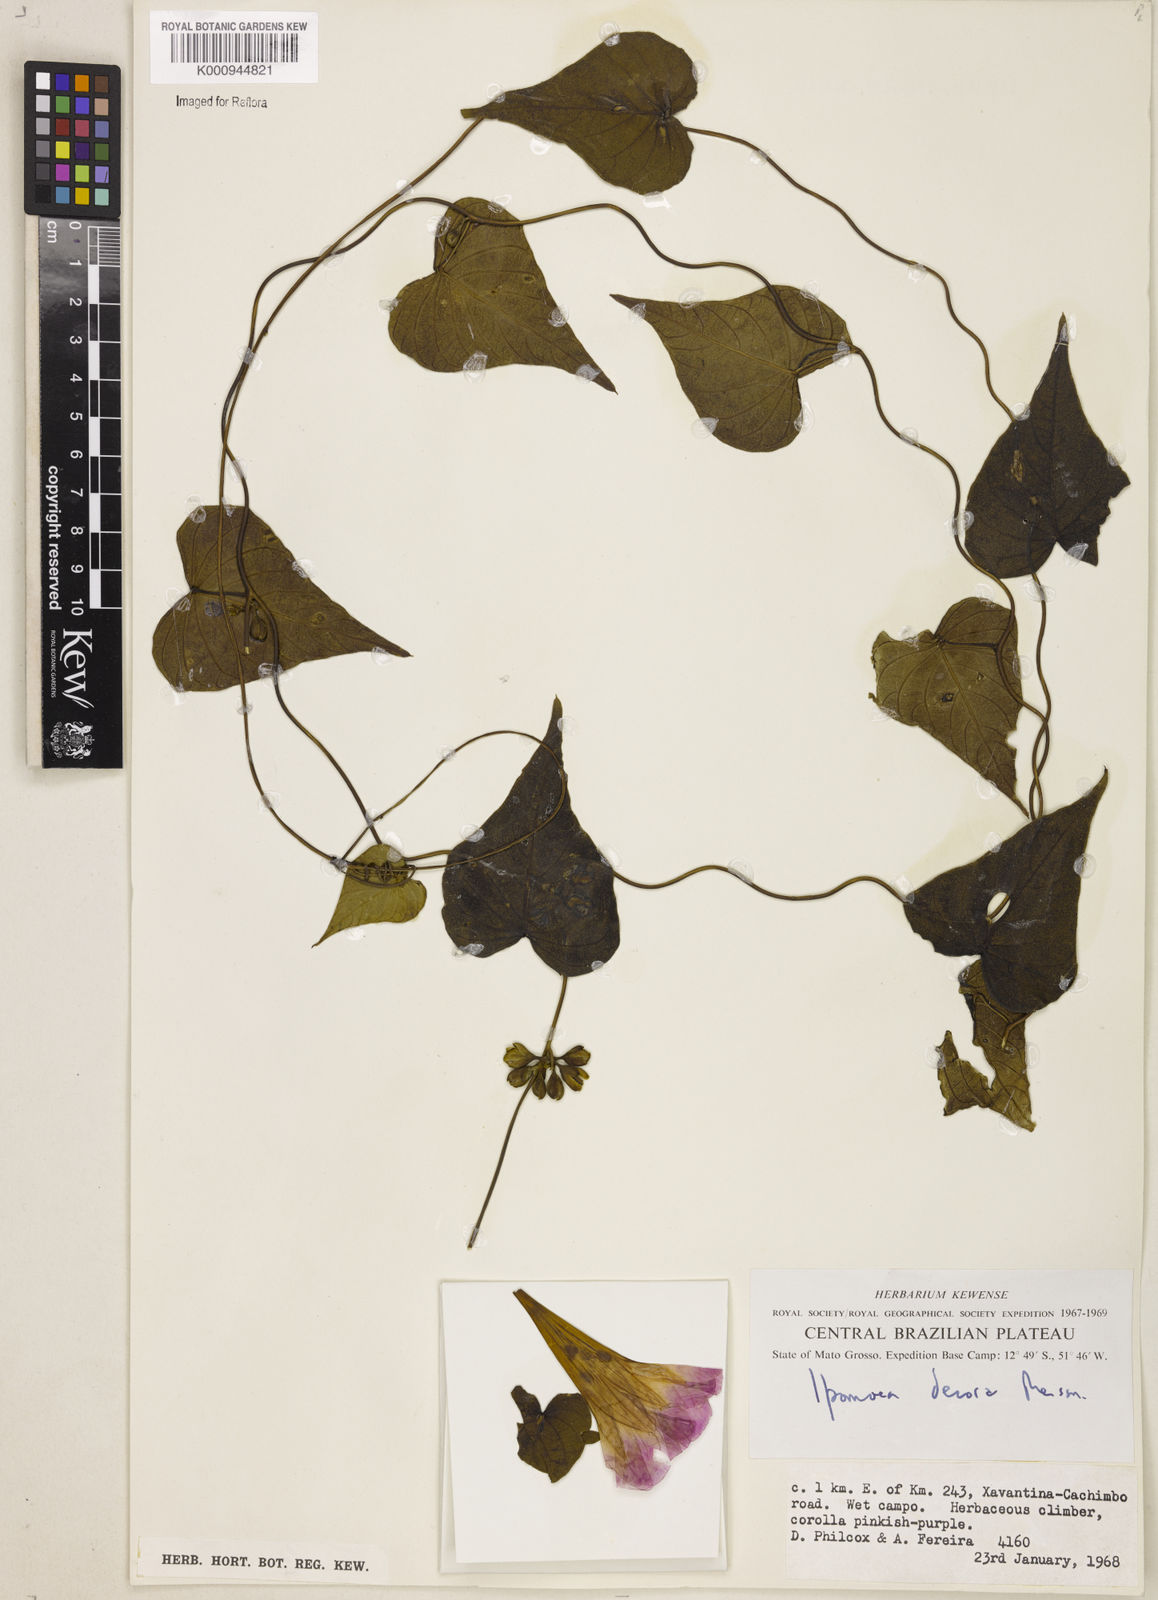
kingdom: Plantae
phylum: Tracheophyta
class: Magnoliopsida
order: Solanales
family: Convolvulaceae
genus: Ipomoea
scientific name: Ipomoea goyazensis
